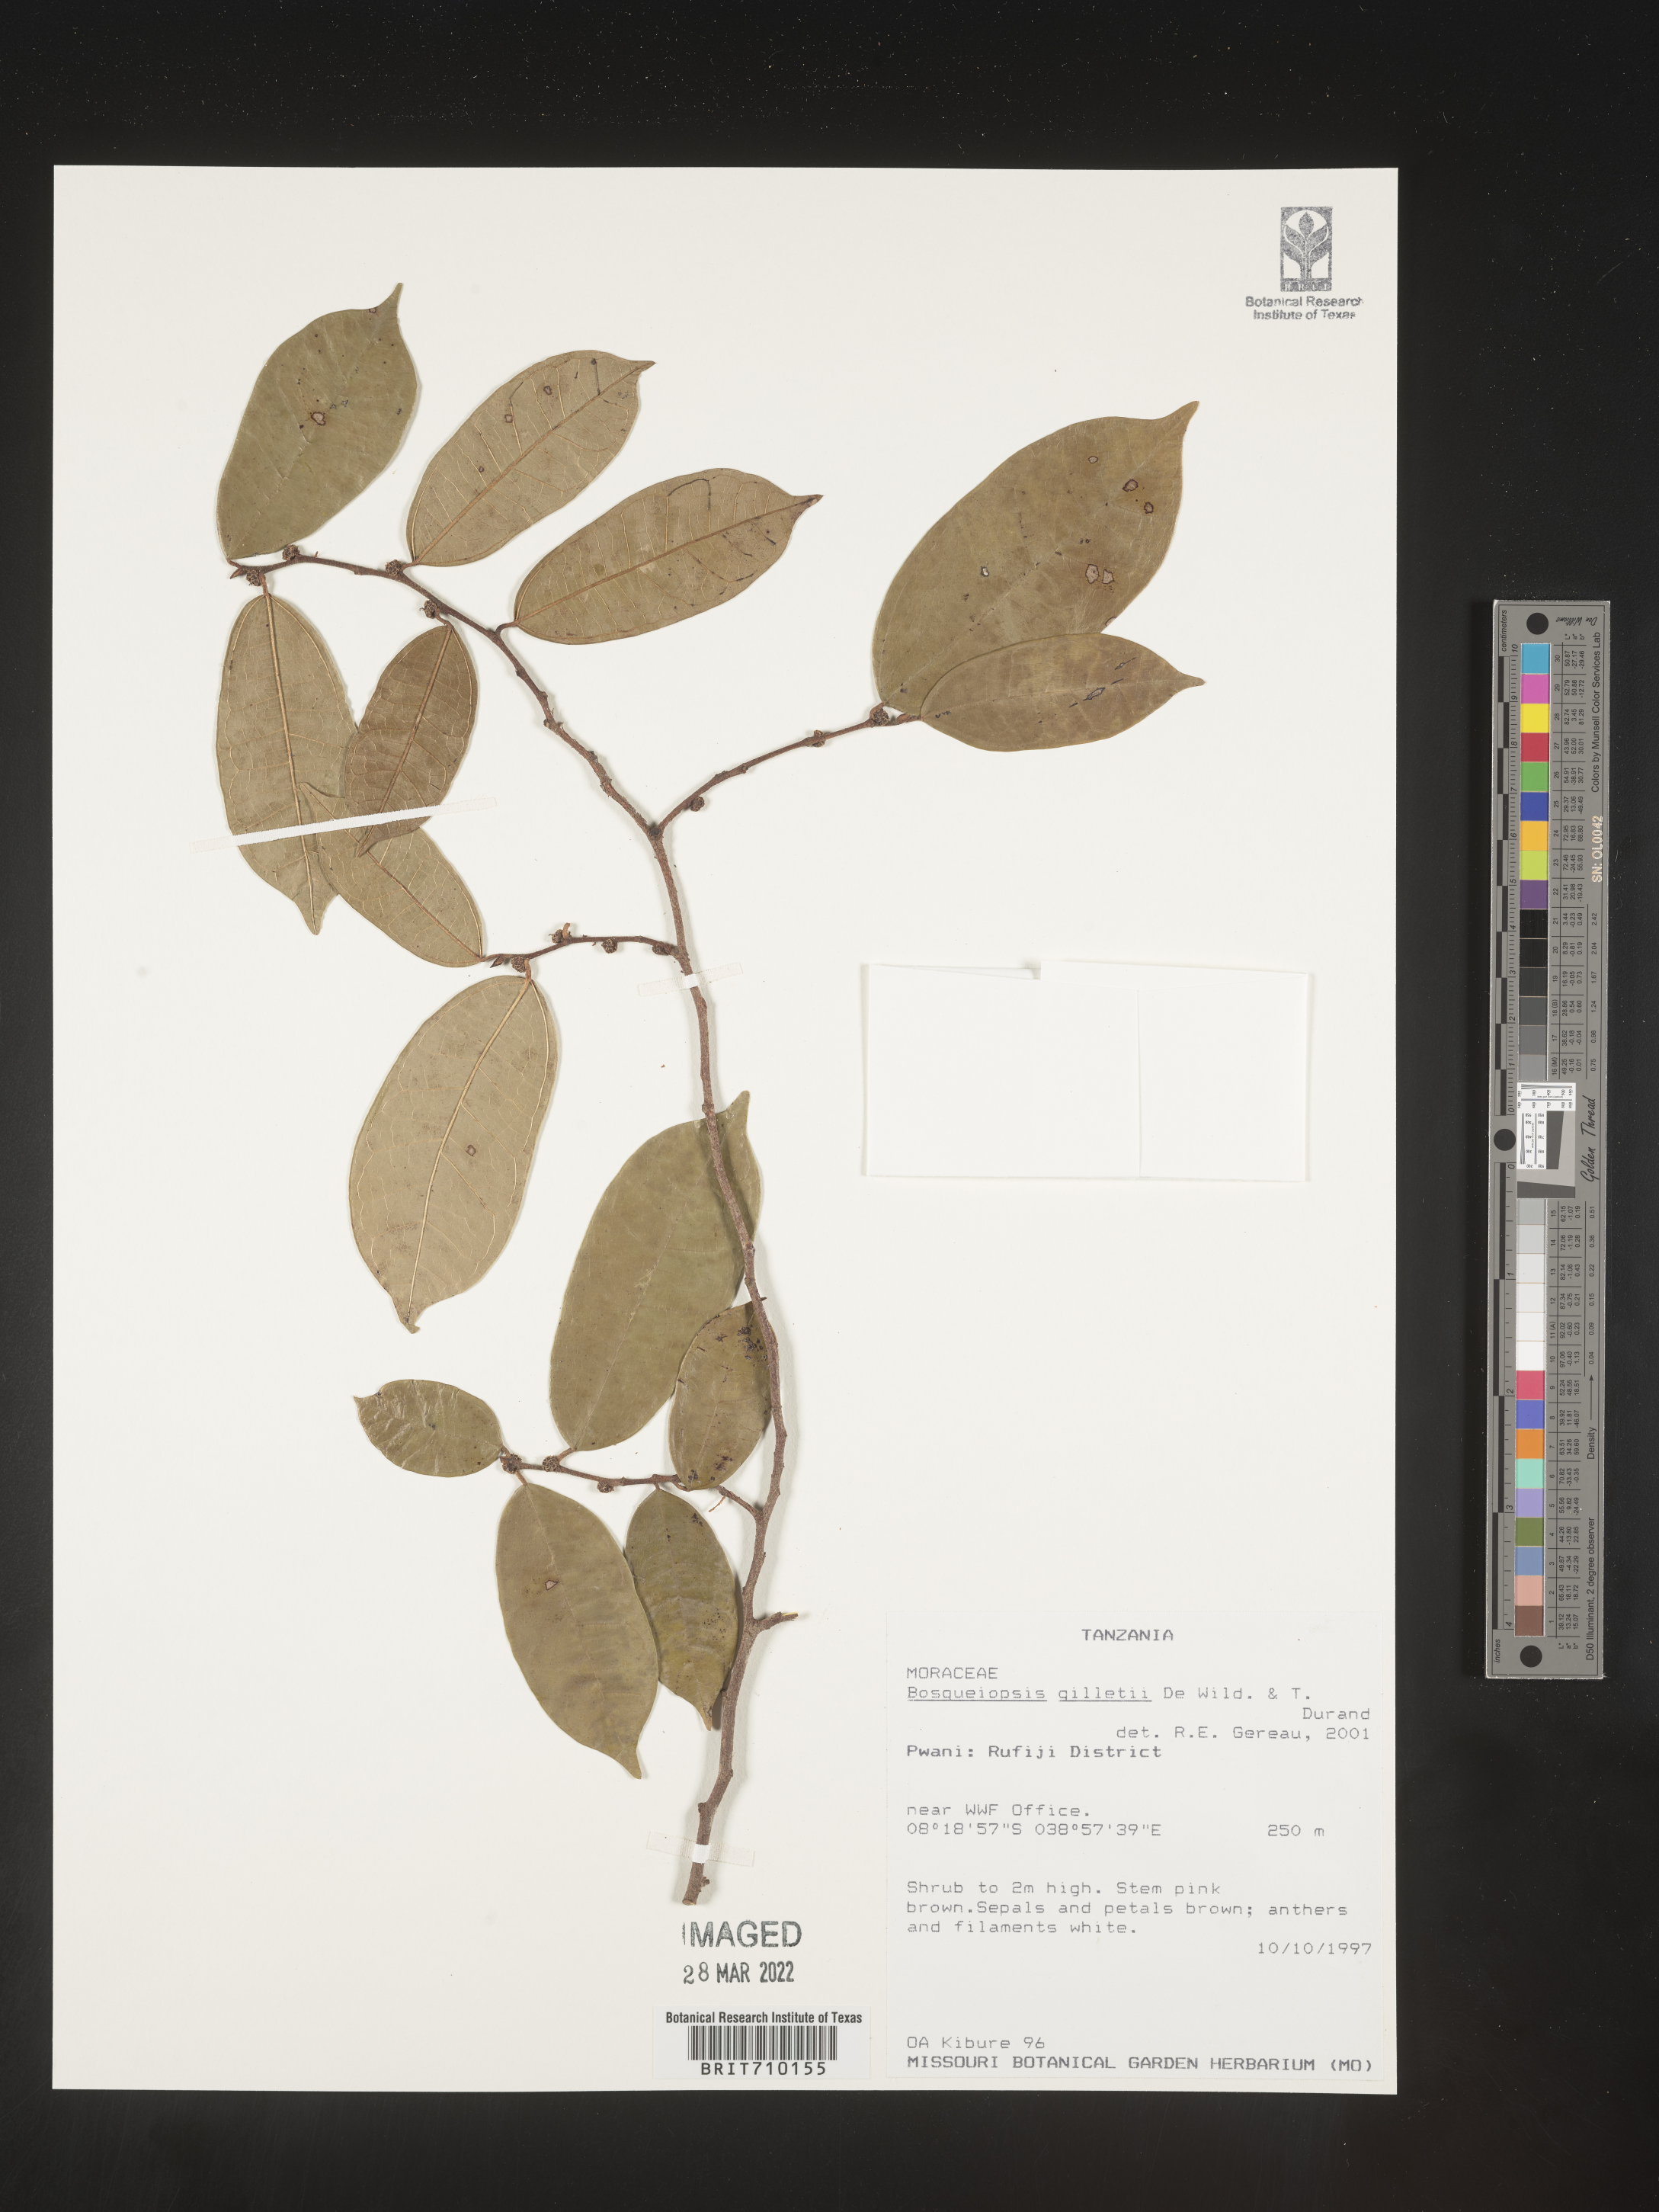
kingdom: Plantae
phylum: Tracheophyta
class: Magnoliopsida
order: Rosales
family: Moraceae
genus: Bosqueiopsis
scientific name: Bosqueiopsis
